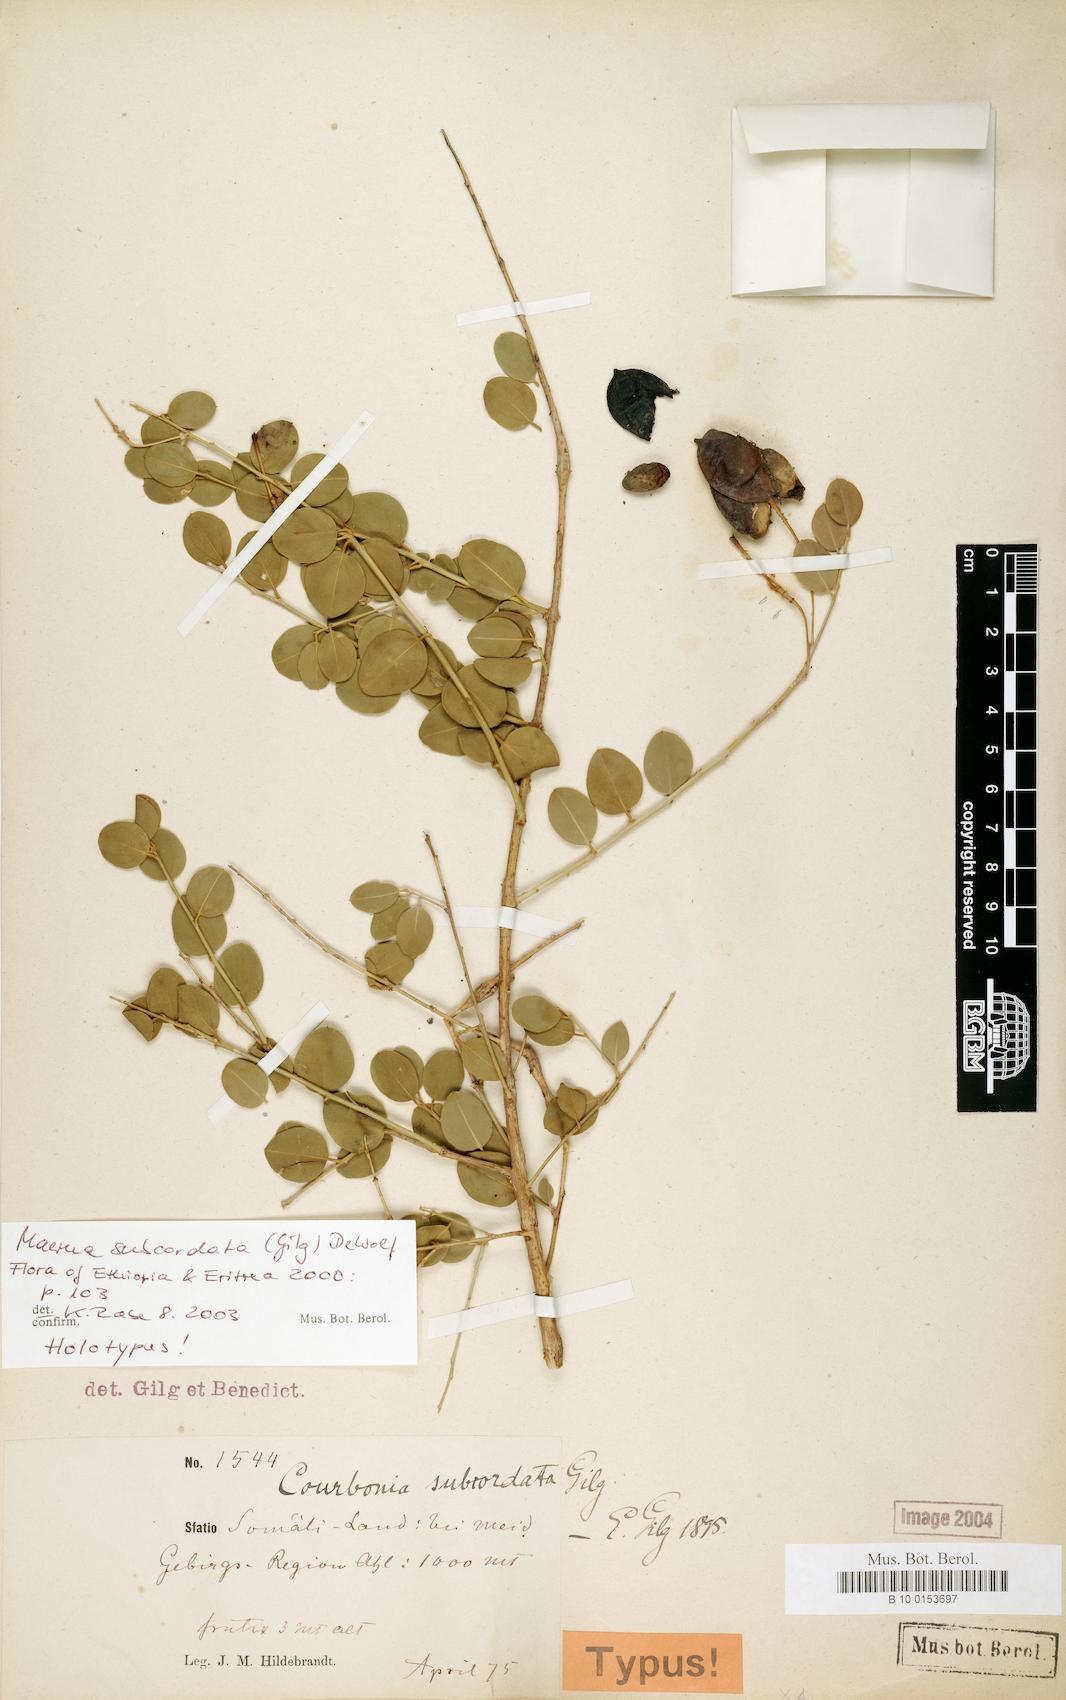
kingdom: Plantae
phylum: Tracheophyta
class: Magnoliopsida
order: Brassicales
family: Capparaceae
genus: Maerua
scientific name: Maerua subcordata
